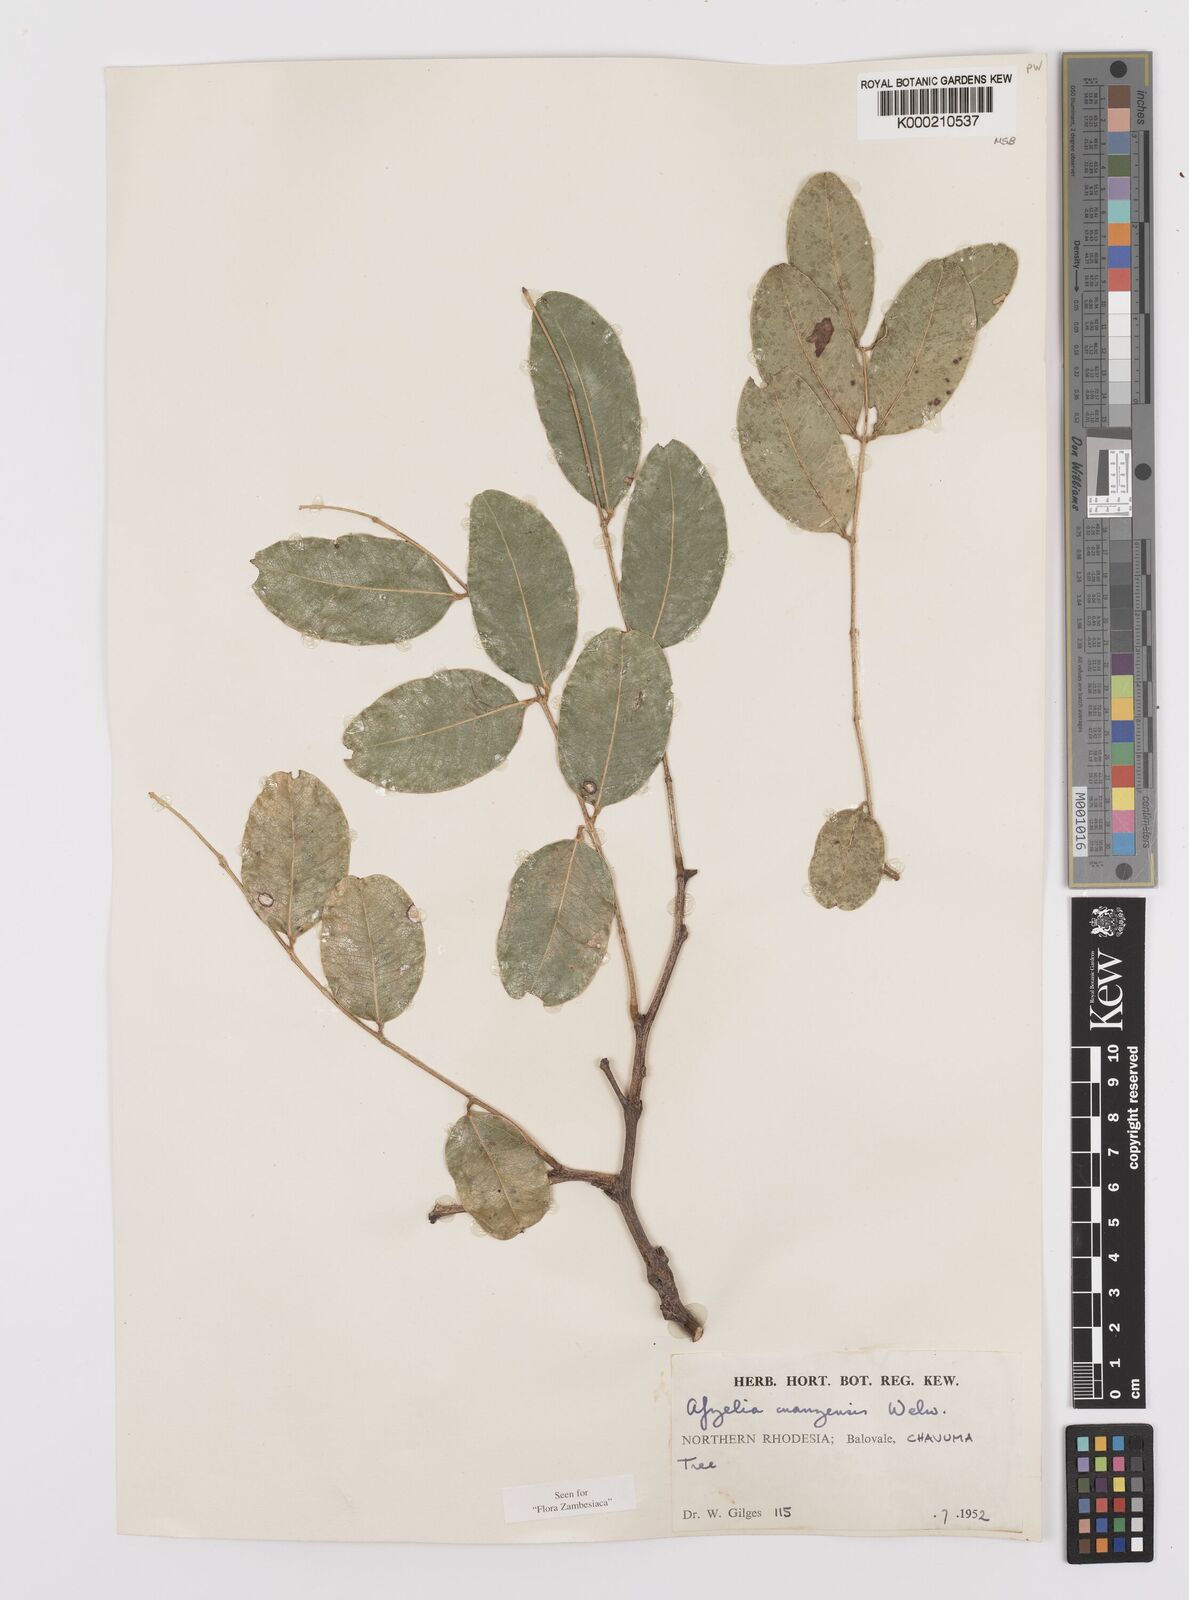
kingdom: Plantae
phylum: Tracheophyta
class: Magnoliopsida
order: Fabales
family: Fabaceae
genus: Afzelia
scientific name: Afzelia quanzensis
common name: Pod mahogany
